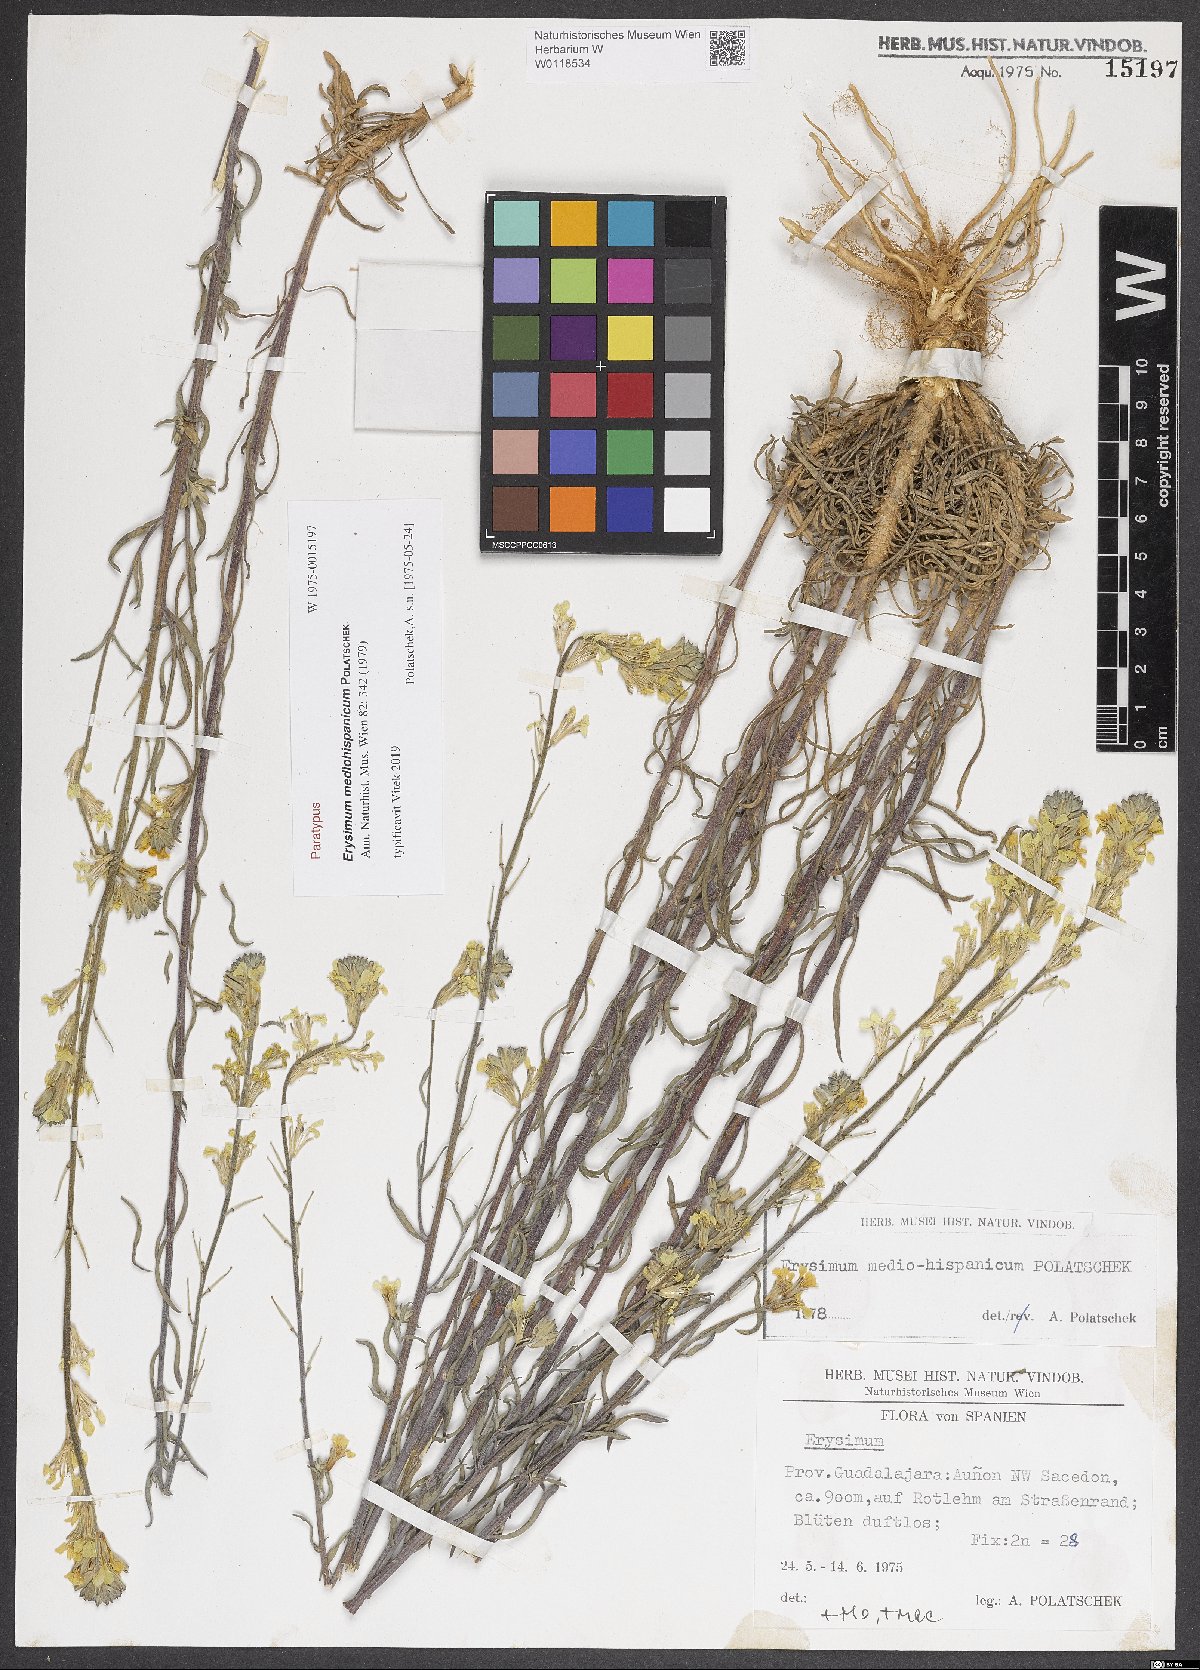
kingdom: Plantae
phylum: Tracheophyta
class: Magnoliopsida
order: Brassicales
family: Brassicaceae
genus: Erysimum
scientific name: Erysimum nevadense
